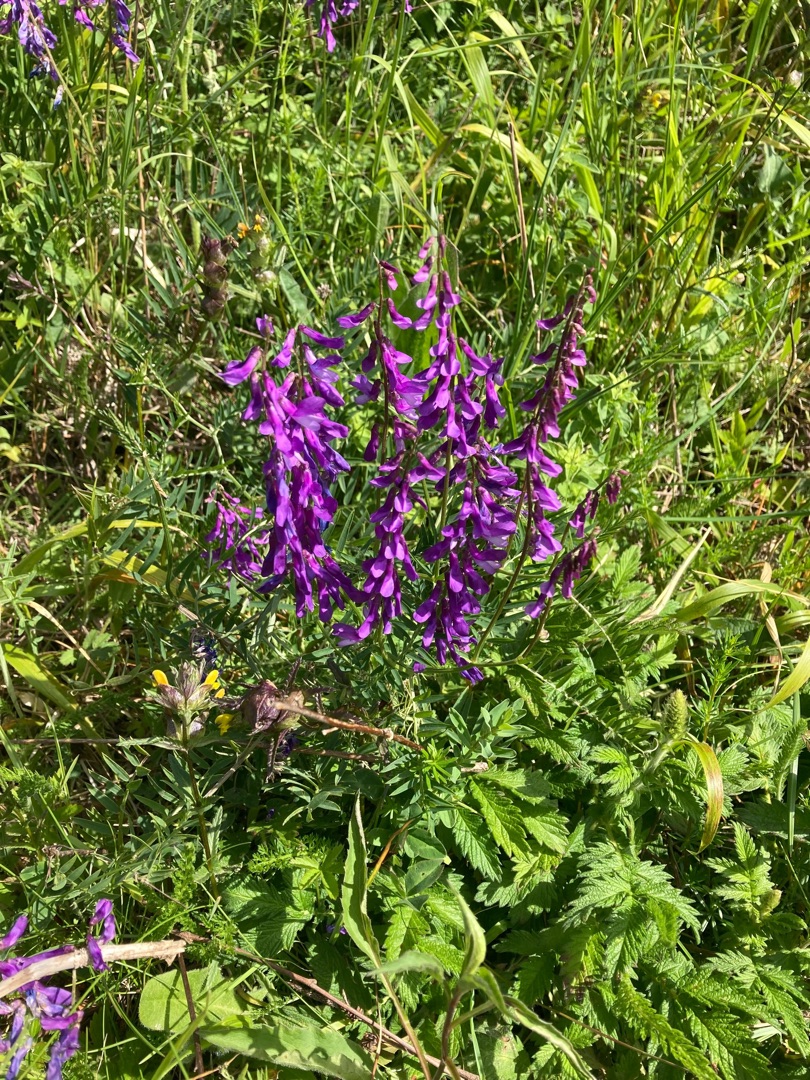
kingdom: Plantae
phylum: Tracheophyta
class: Magnoliopsida
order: Fabales
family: Fabaceae
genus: Vicia
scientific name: Vicia tenuifolia
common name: Langklaset vikke
